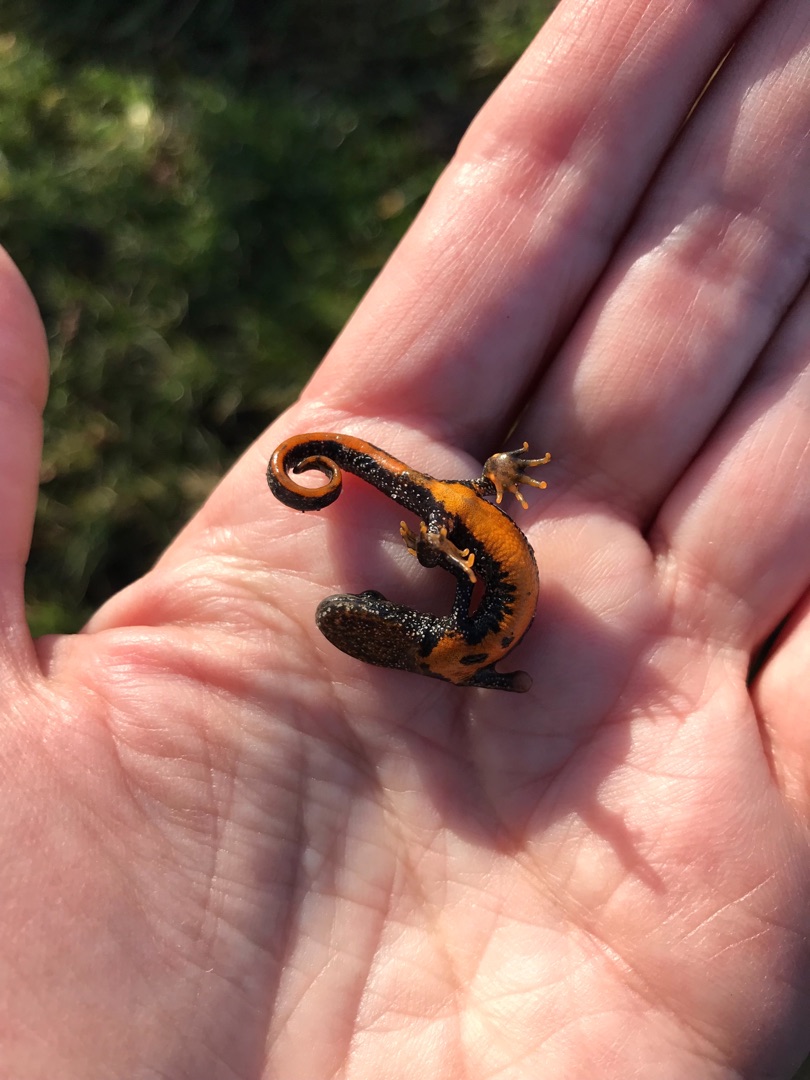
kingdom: Animalia
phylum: Chordata
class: Amphibia
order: Caudata
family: Salamandridae
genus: Triturus
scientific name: Triturus cristatus
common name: Stor vandsalamander
